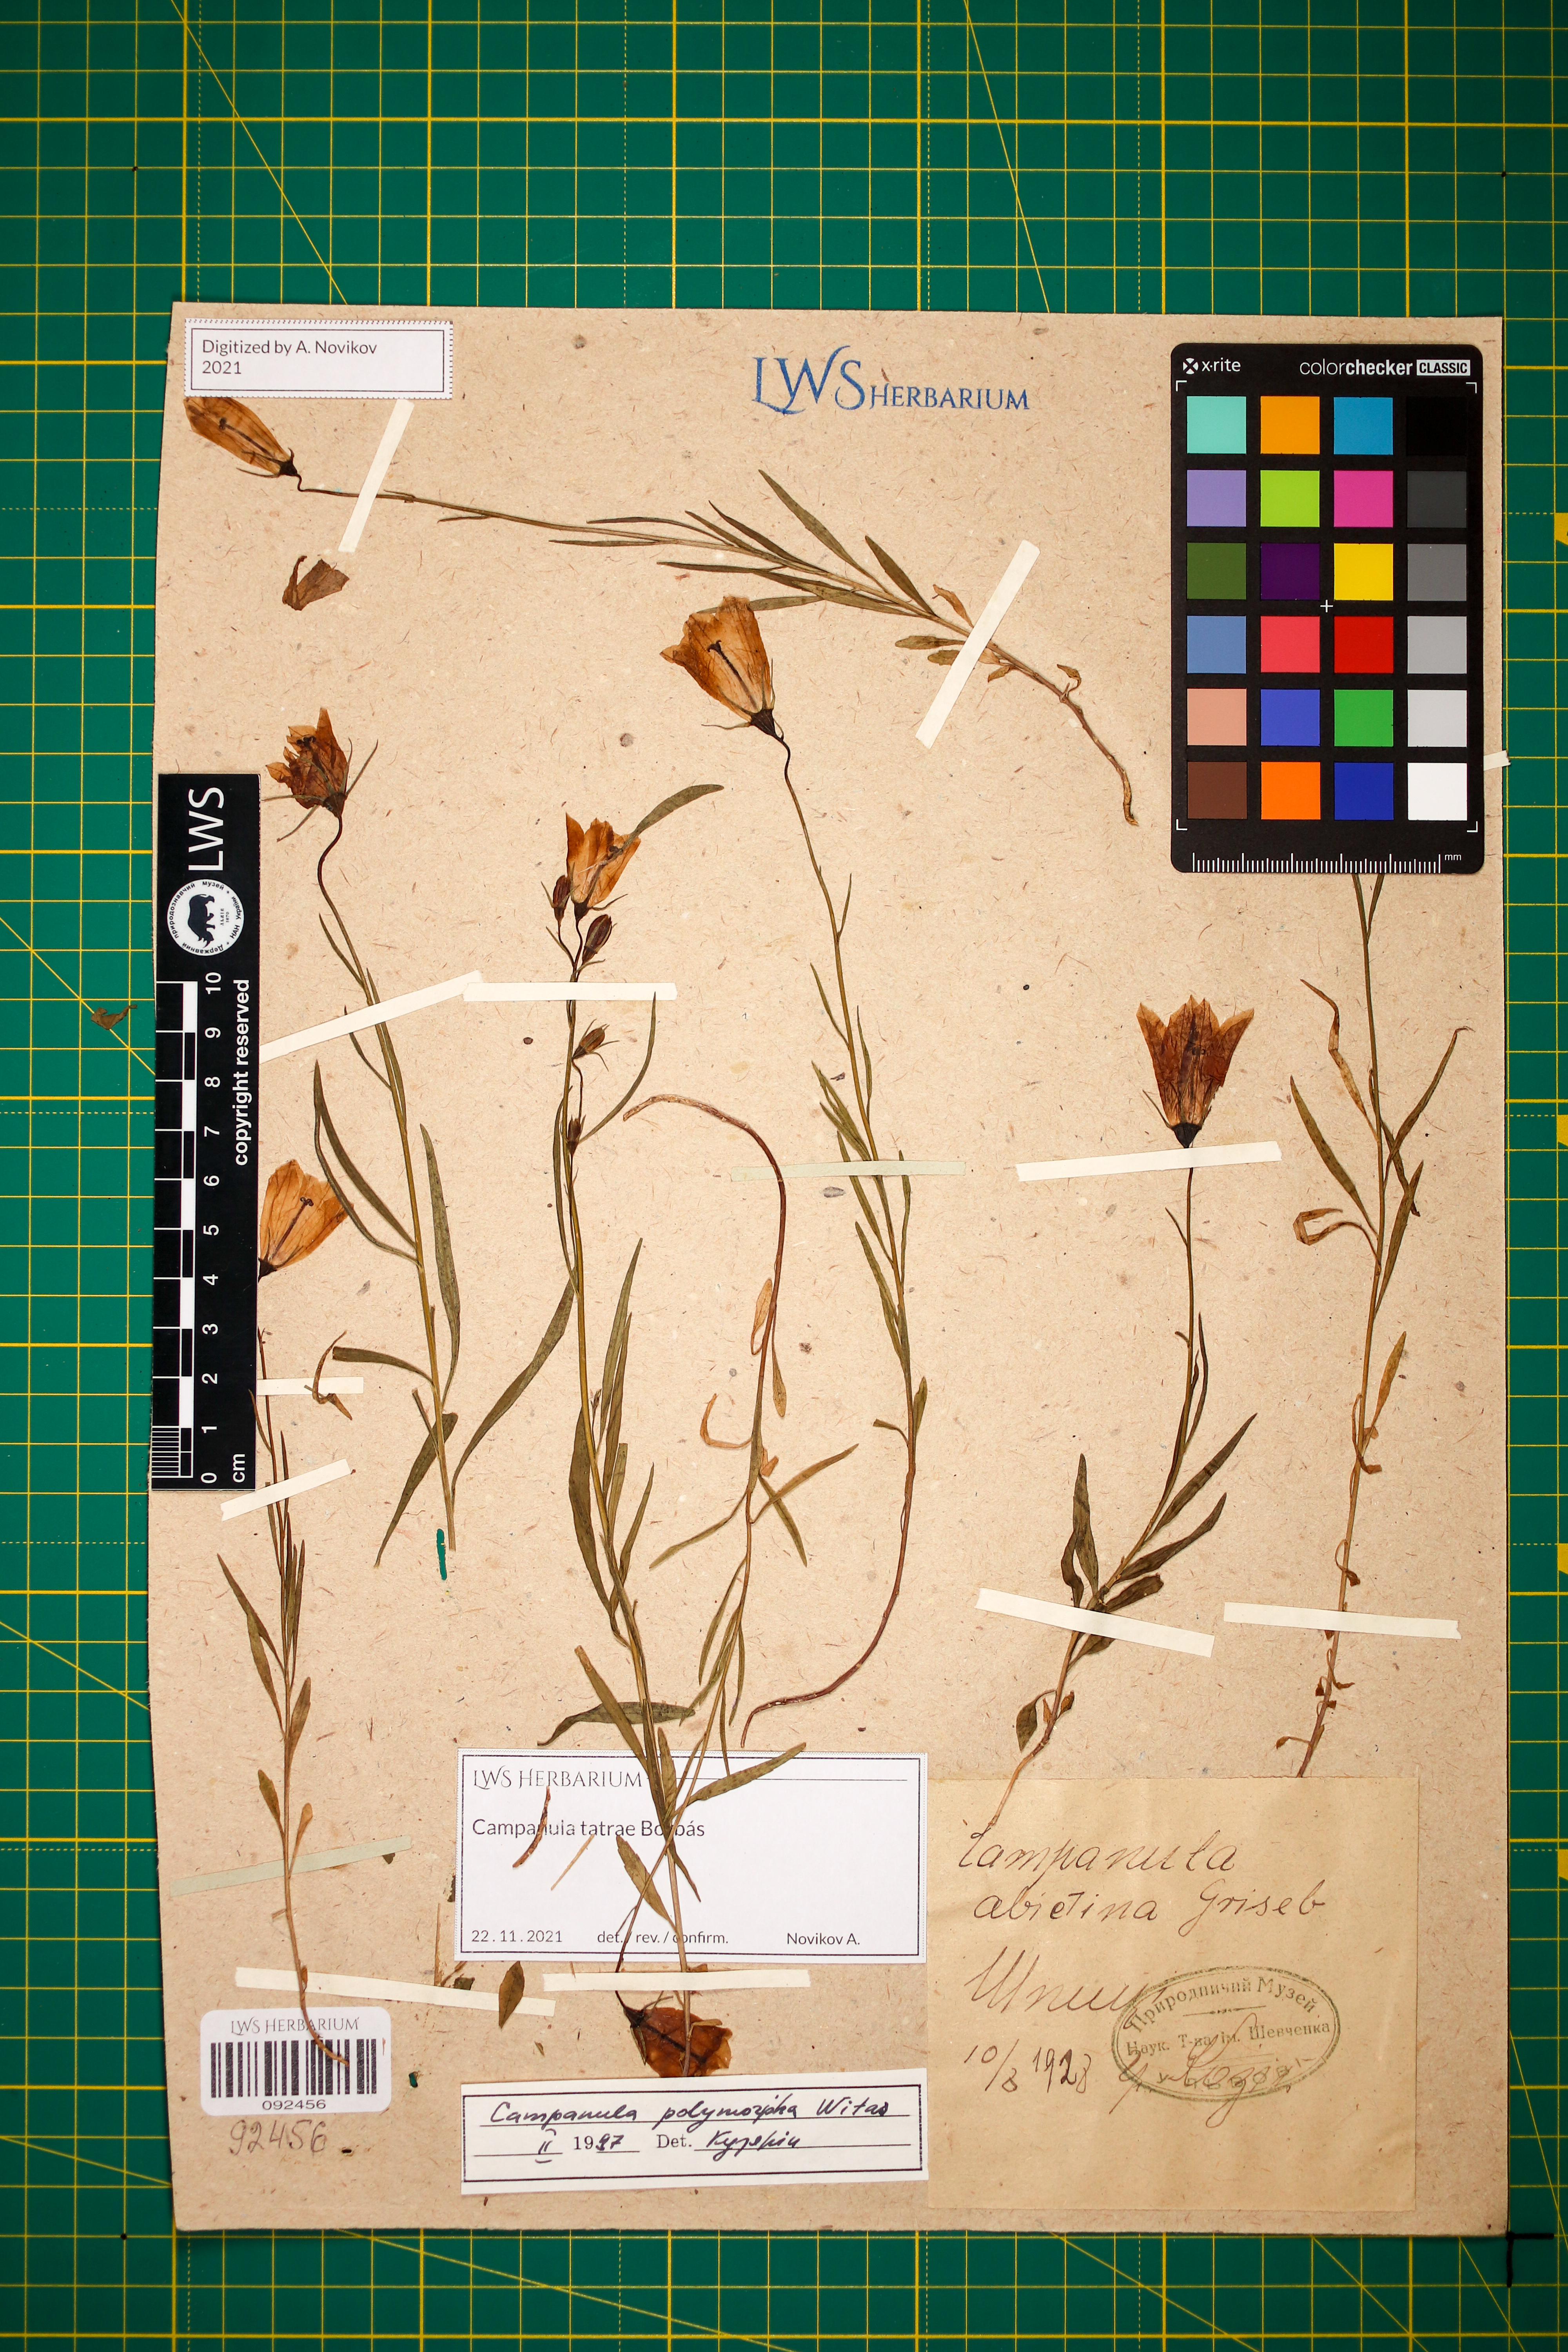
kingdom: Plantae
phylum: Tracheophyta
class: Magnoliopsida
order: Asterales
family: Campanulaceae
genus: Campanula
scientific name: Campanula tatrae
